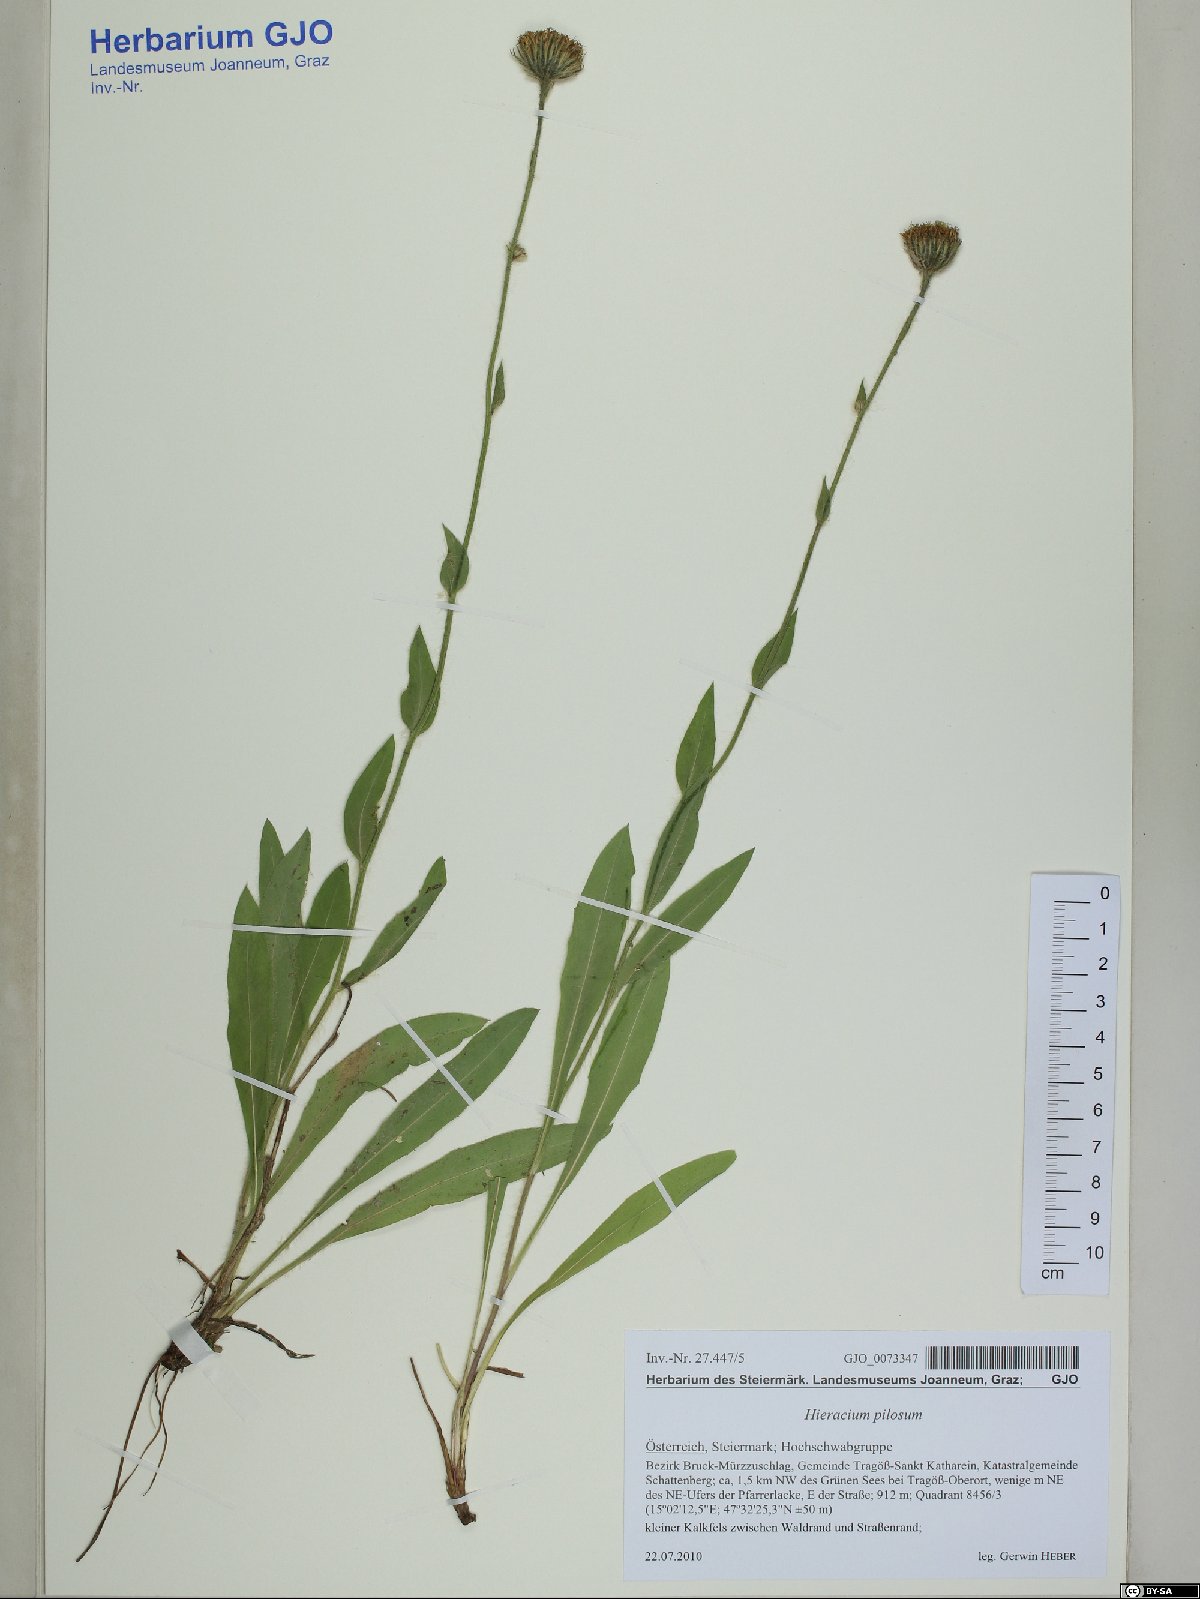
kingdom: Plantae
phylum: Tracheophyta
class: Magnoliopsida
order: Asterales
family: Asteraceae
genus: Hieracium
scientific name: Hieracium pilosum
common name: Fimbriate-pitted hawkweed
